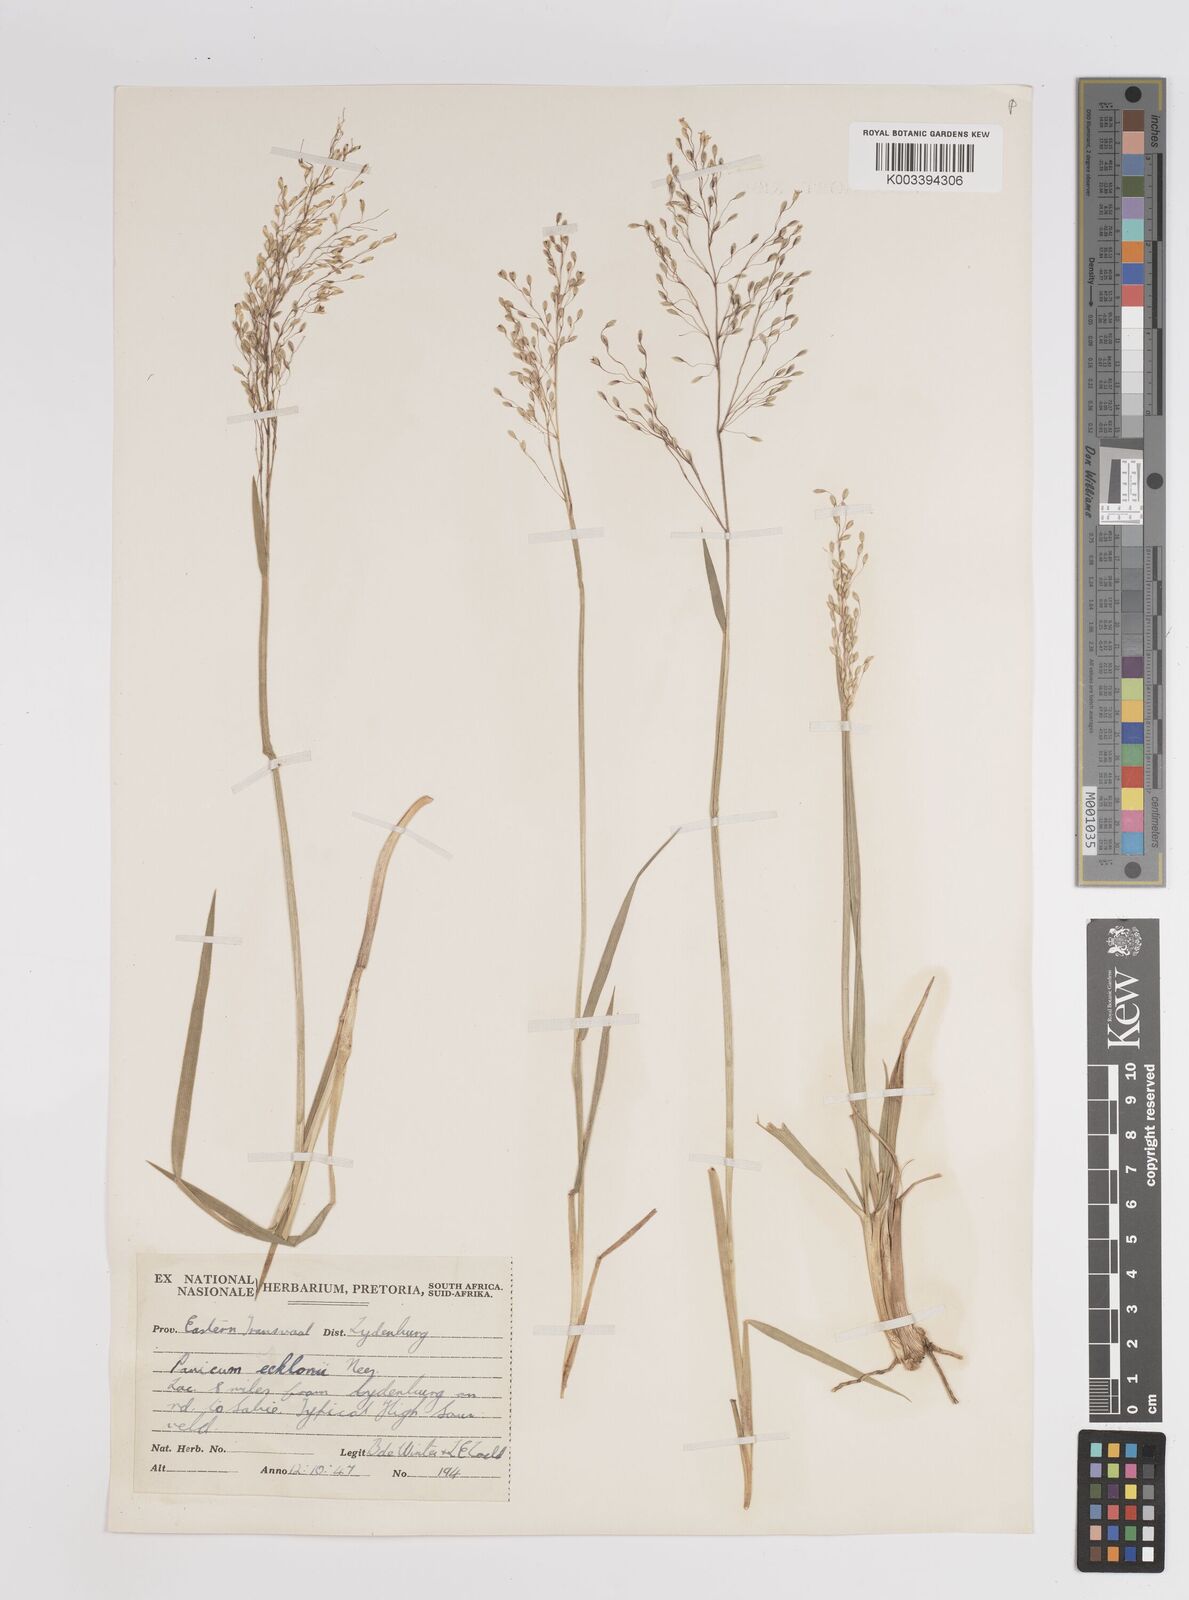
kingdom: Plantae
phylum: Tracheophyta
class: Liliopsida
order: Poales
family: Poaceae
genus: Adenochloa
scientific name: Adenochloa ecklonii
